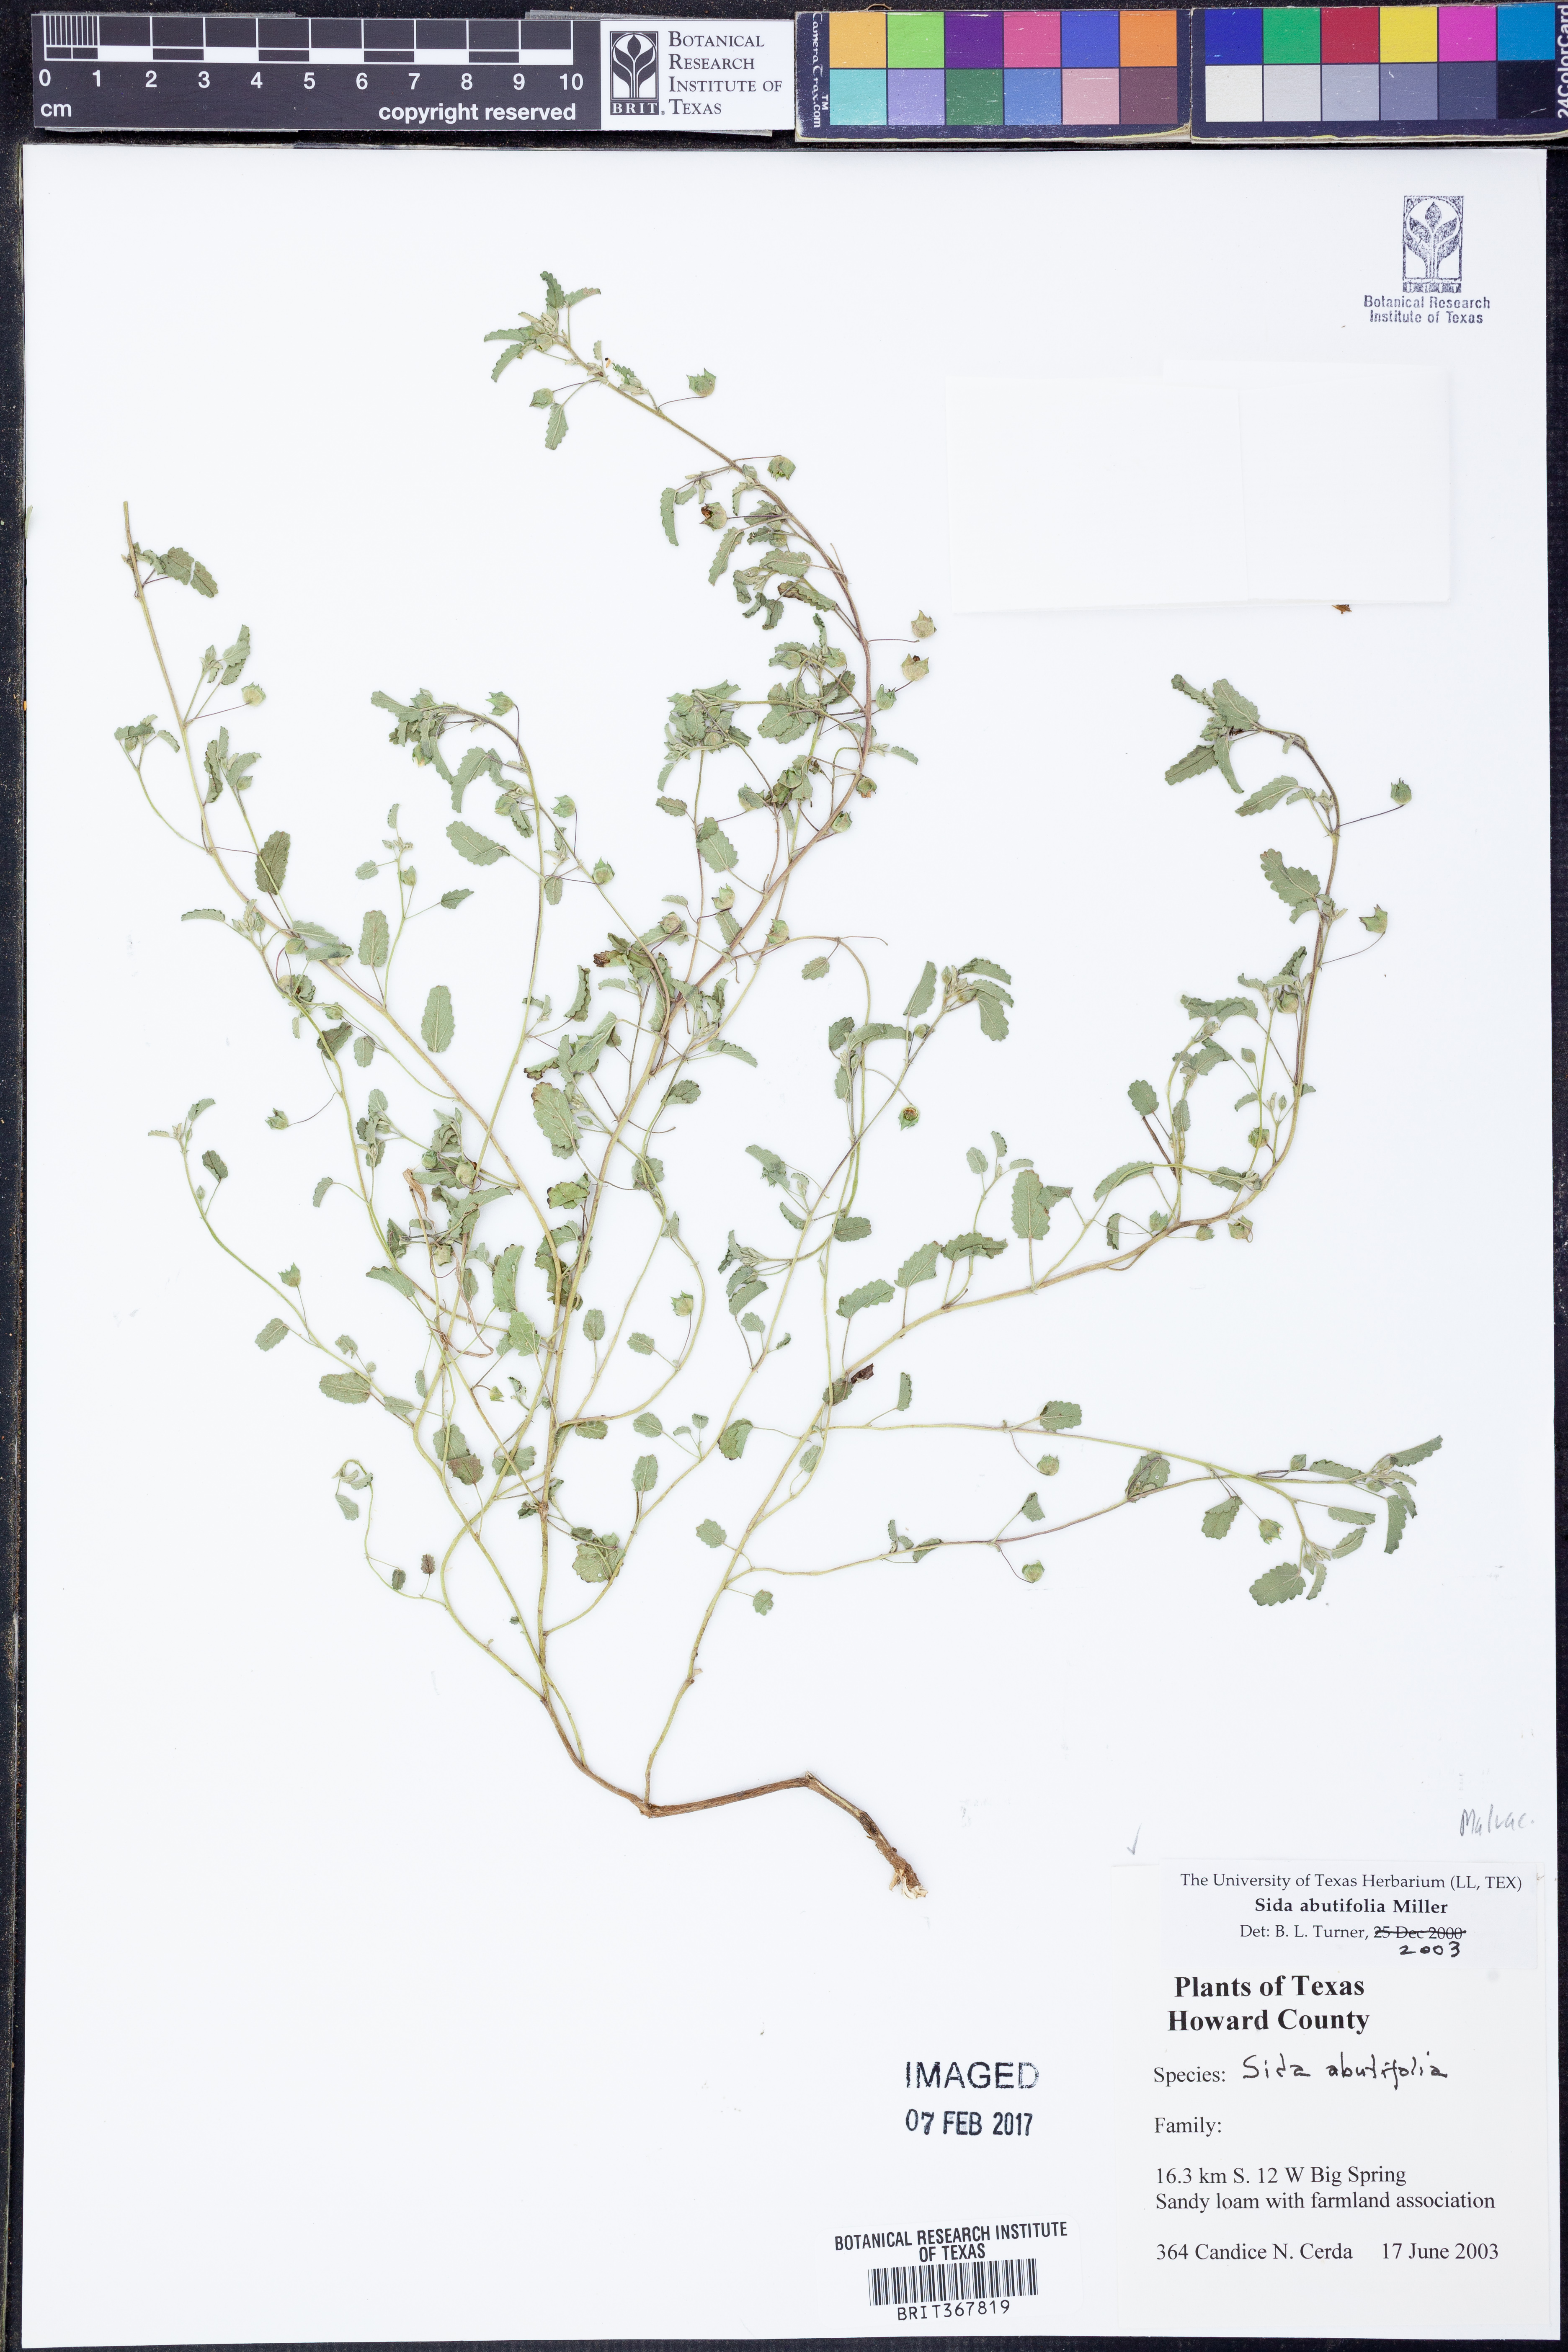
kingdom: Plantae
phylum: Tracheophyta
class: Magnoliopsida
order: Malvales
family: Malvaceae
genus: Sida
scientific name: Sida abutifolia
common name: Spreading fantails
